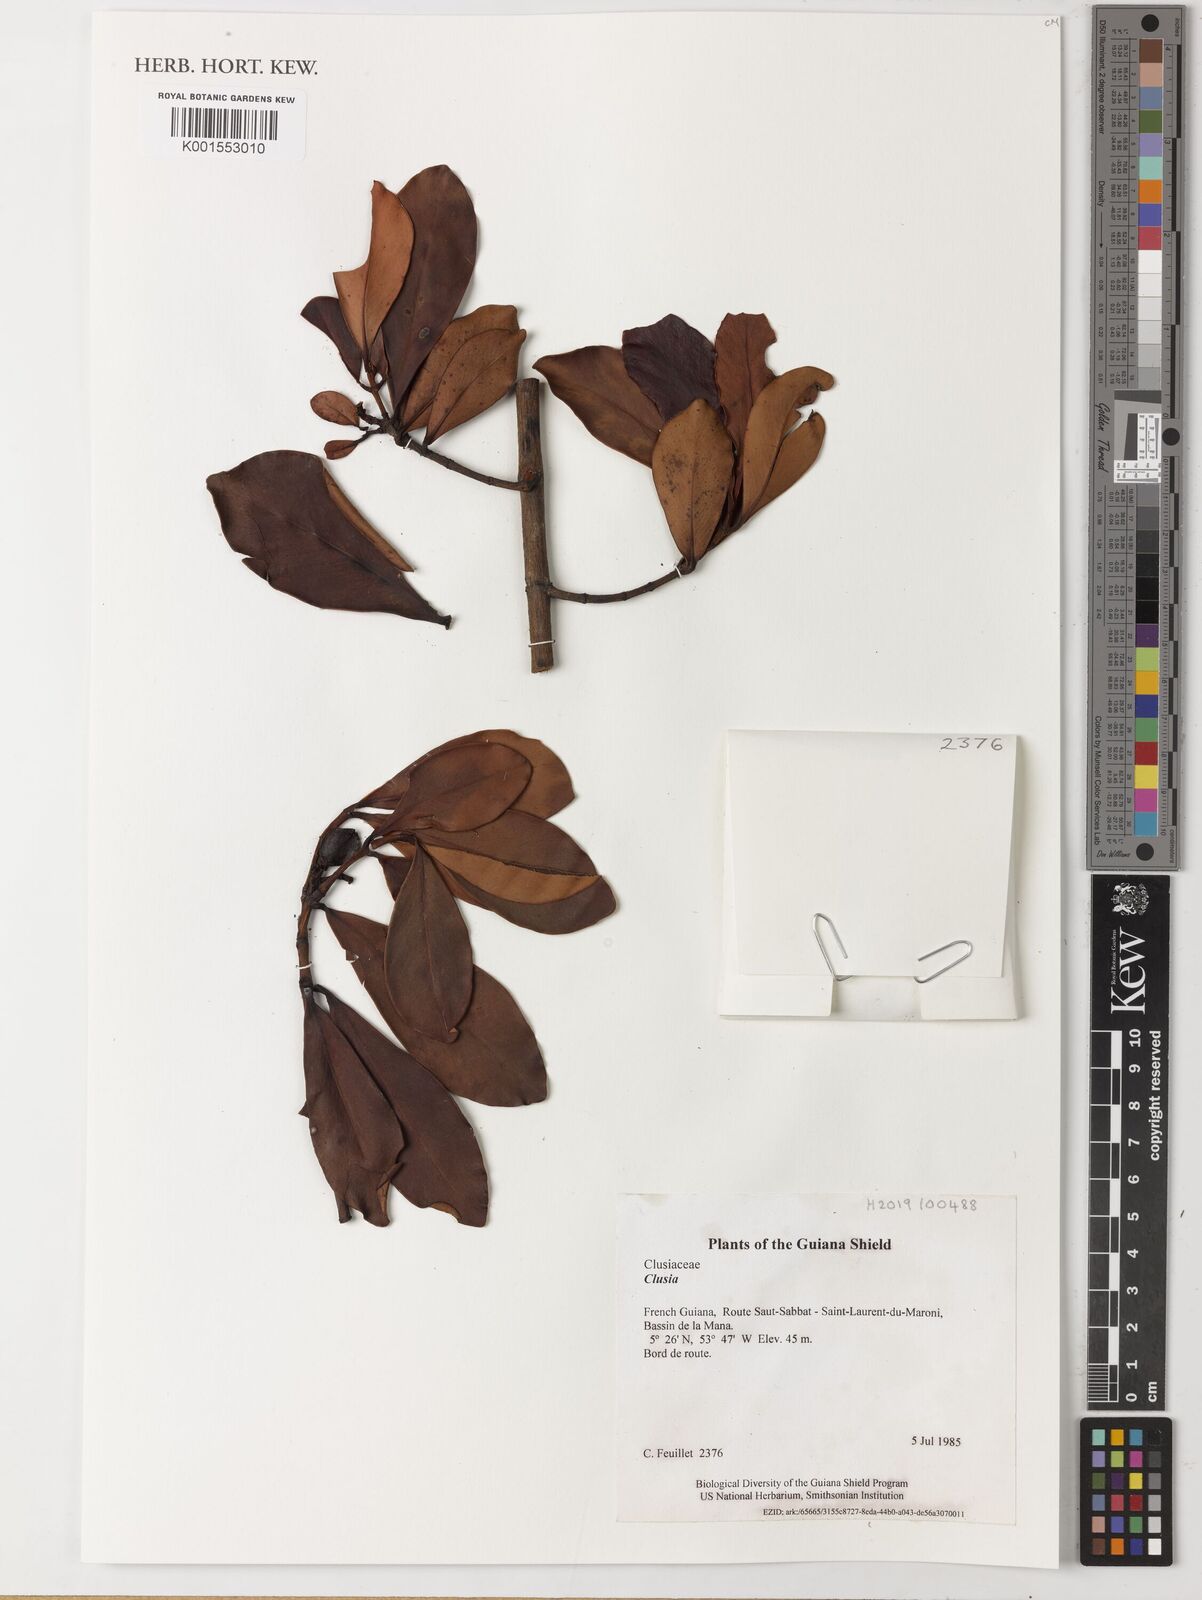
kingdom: Plantae
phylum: Tracheophyta
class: Magnoliopsida
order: Malpighiales
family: Clusiaceae
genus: Clusia
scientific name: Clusia
